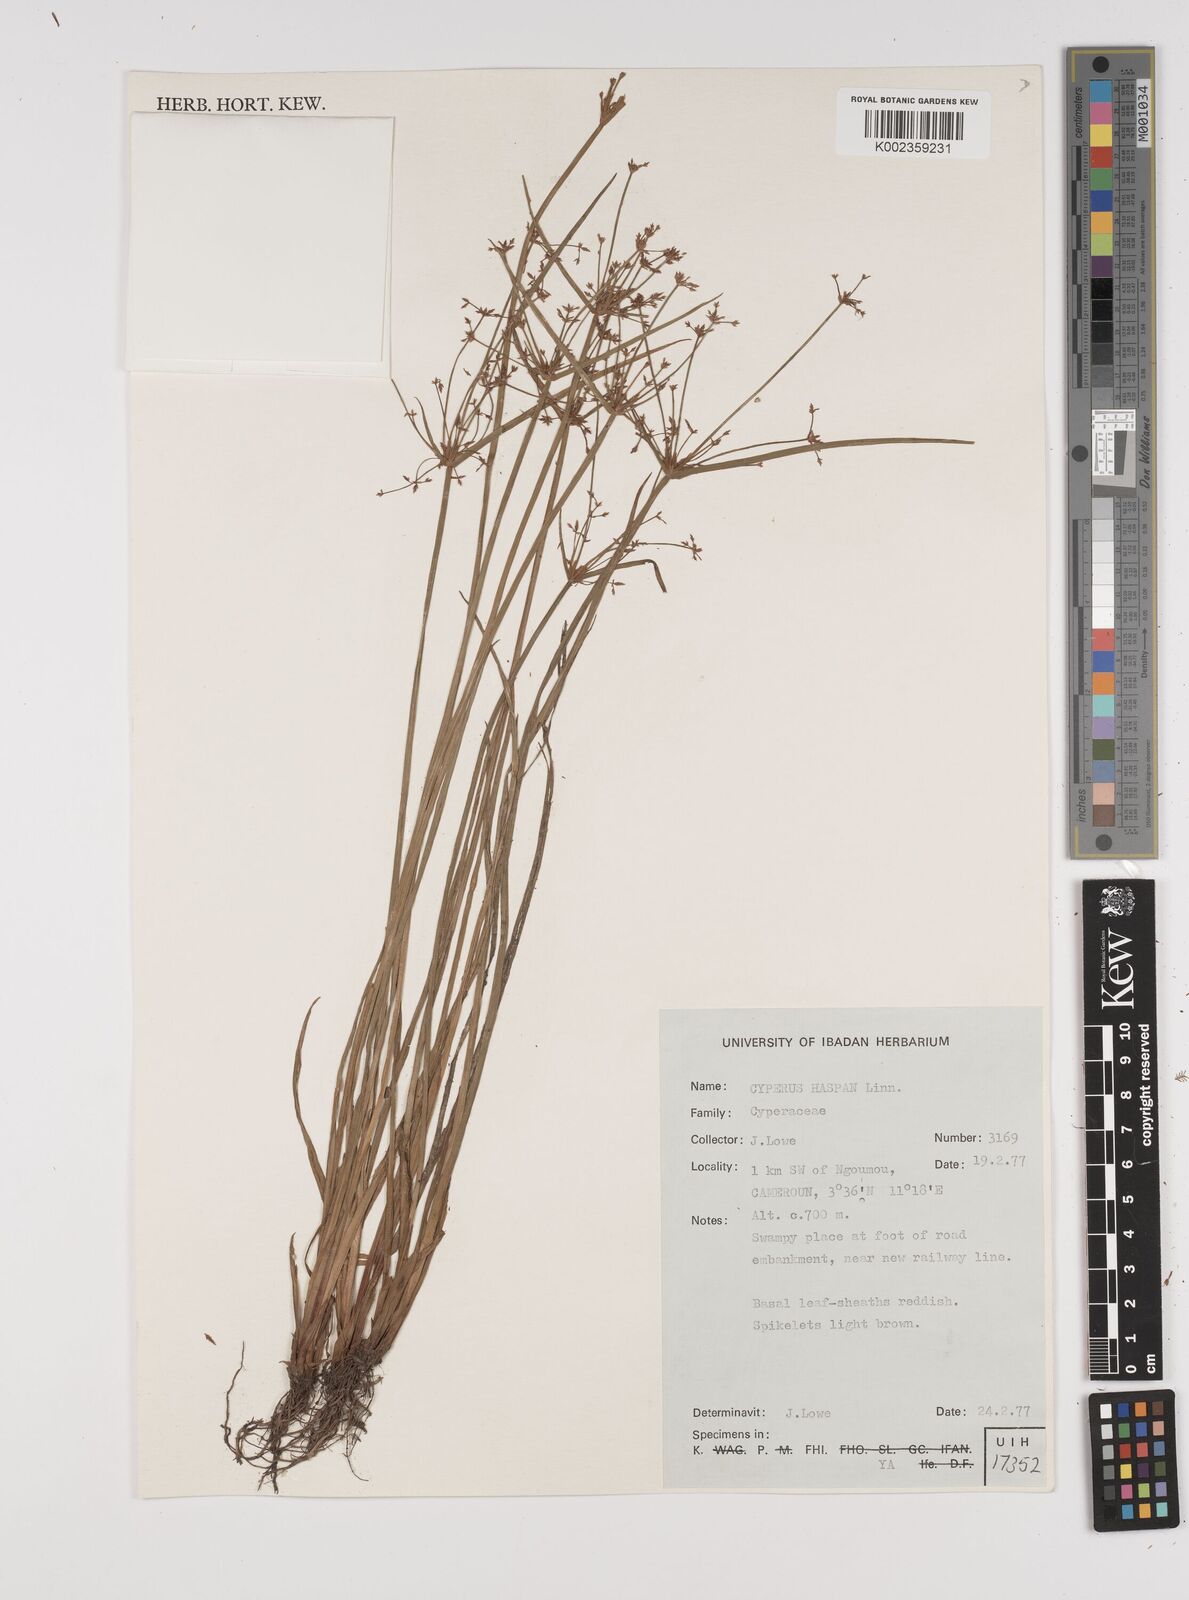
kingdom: Plantae
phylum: Tracheophyta
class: Liliopsida
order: Poales
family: Cyperaceae
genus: Cyperus
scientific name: Cyperus haspan
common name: Haspan flatsedge
